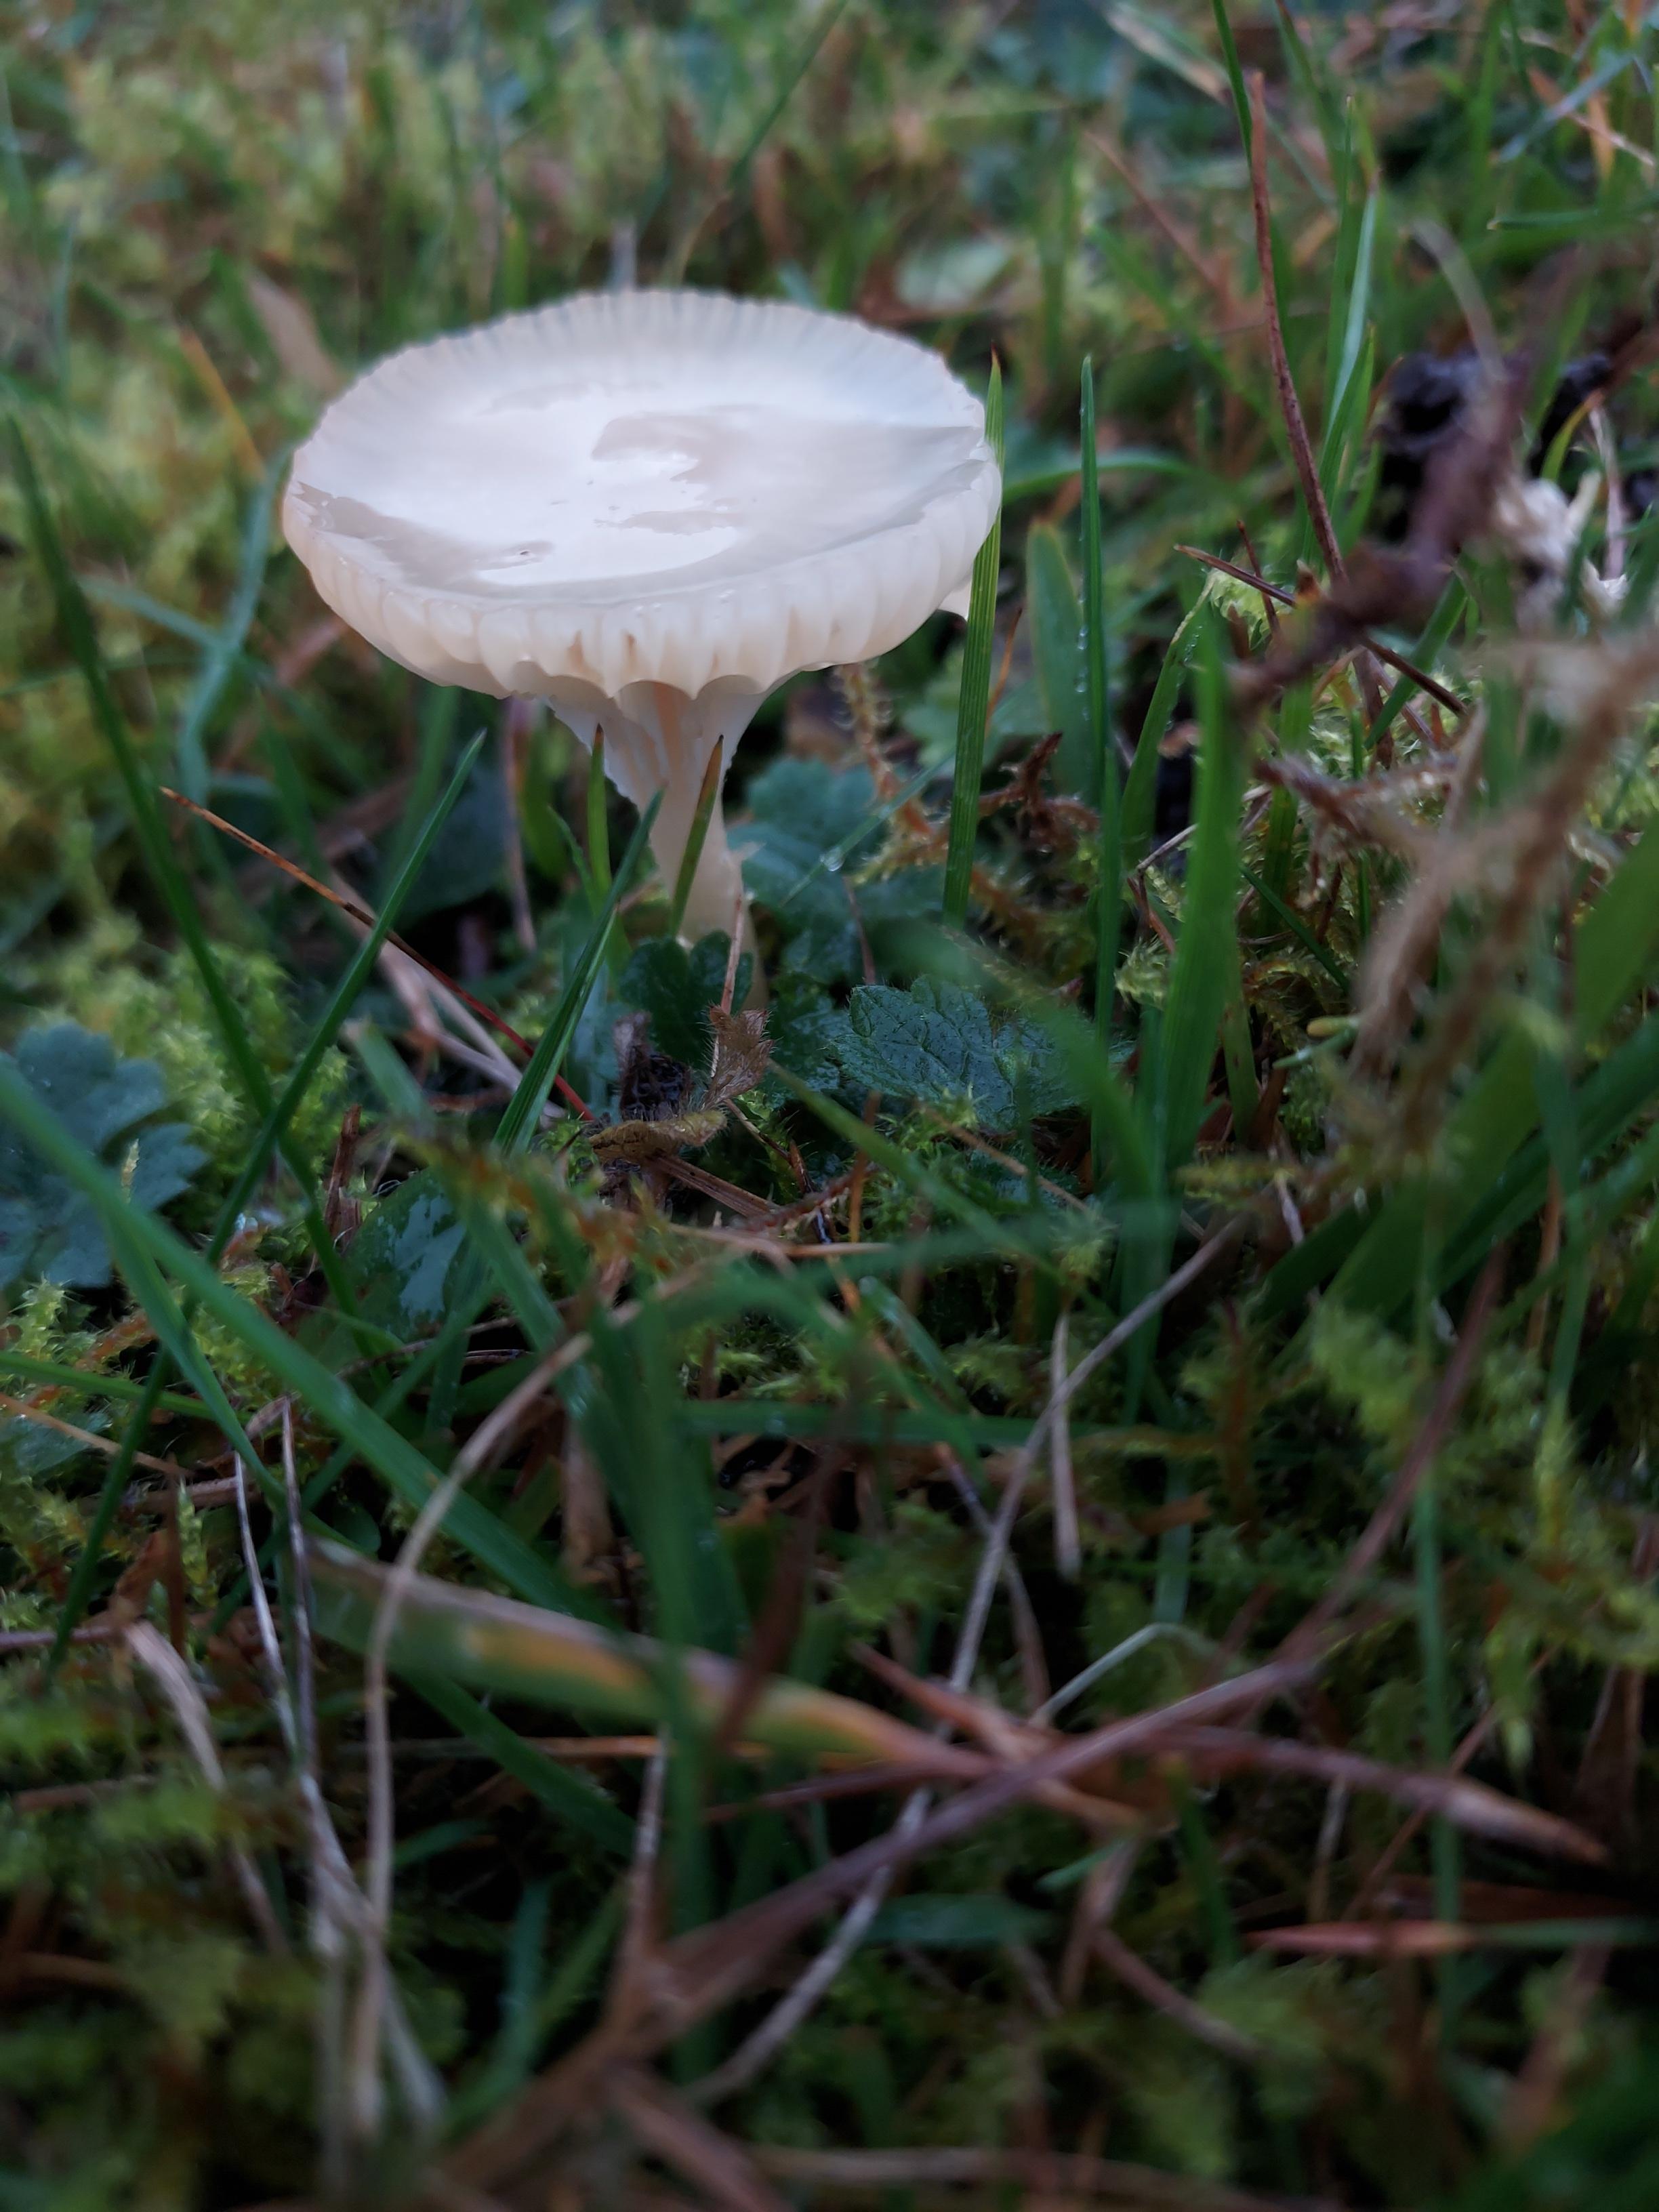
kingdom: Fungi
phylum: Basidiomycota
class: Agaricomycetes
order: Agaricales
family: Hygrophoraceae
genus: Cuphophyllus
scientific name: Cuphophyllus virgineus
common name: snehvid vokshat
